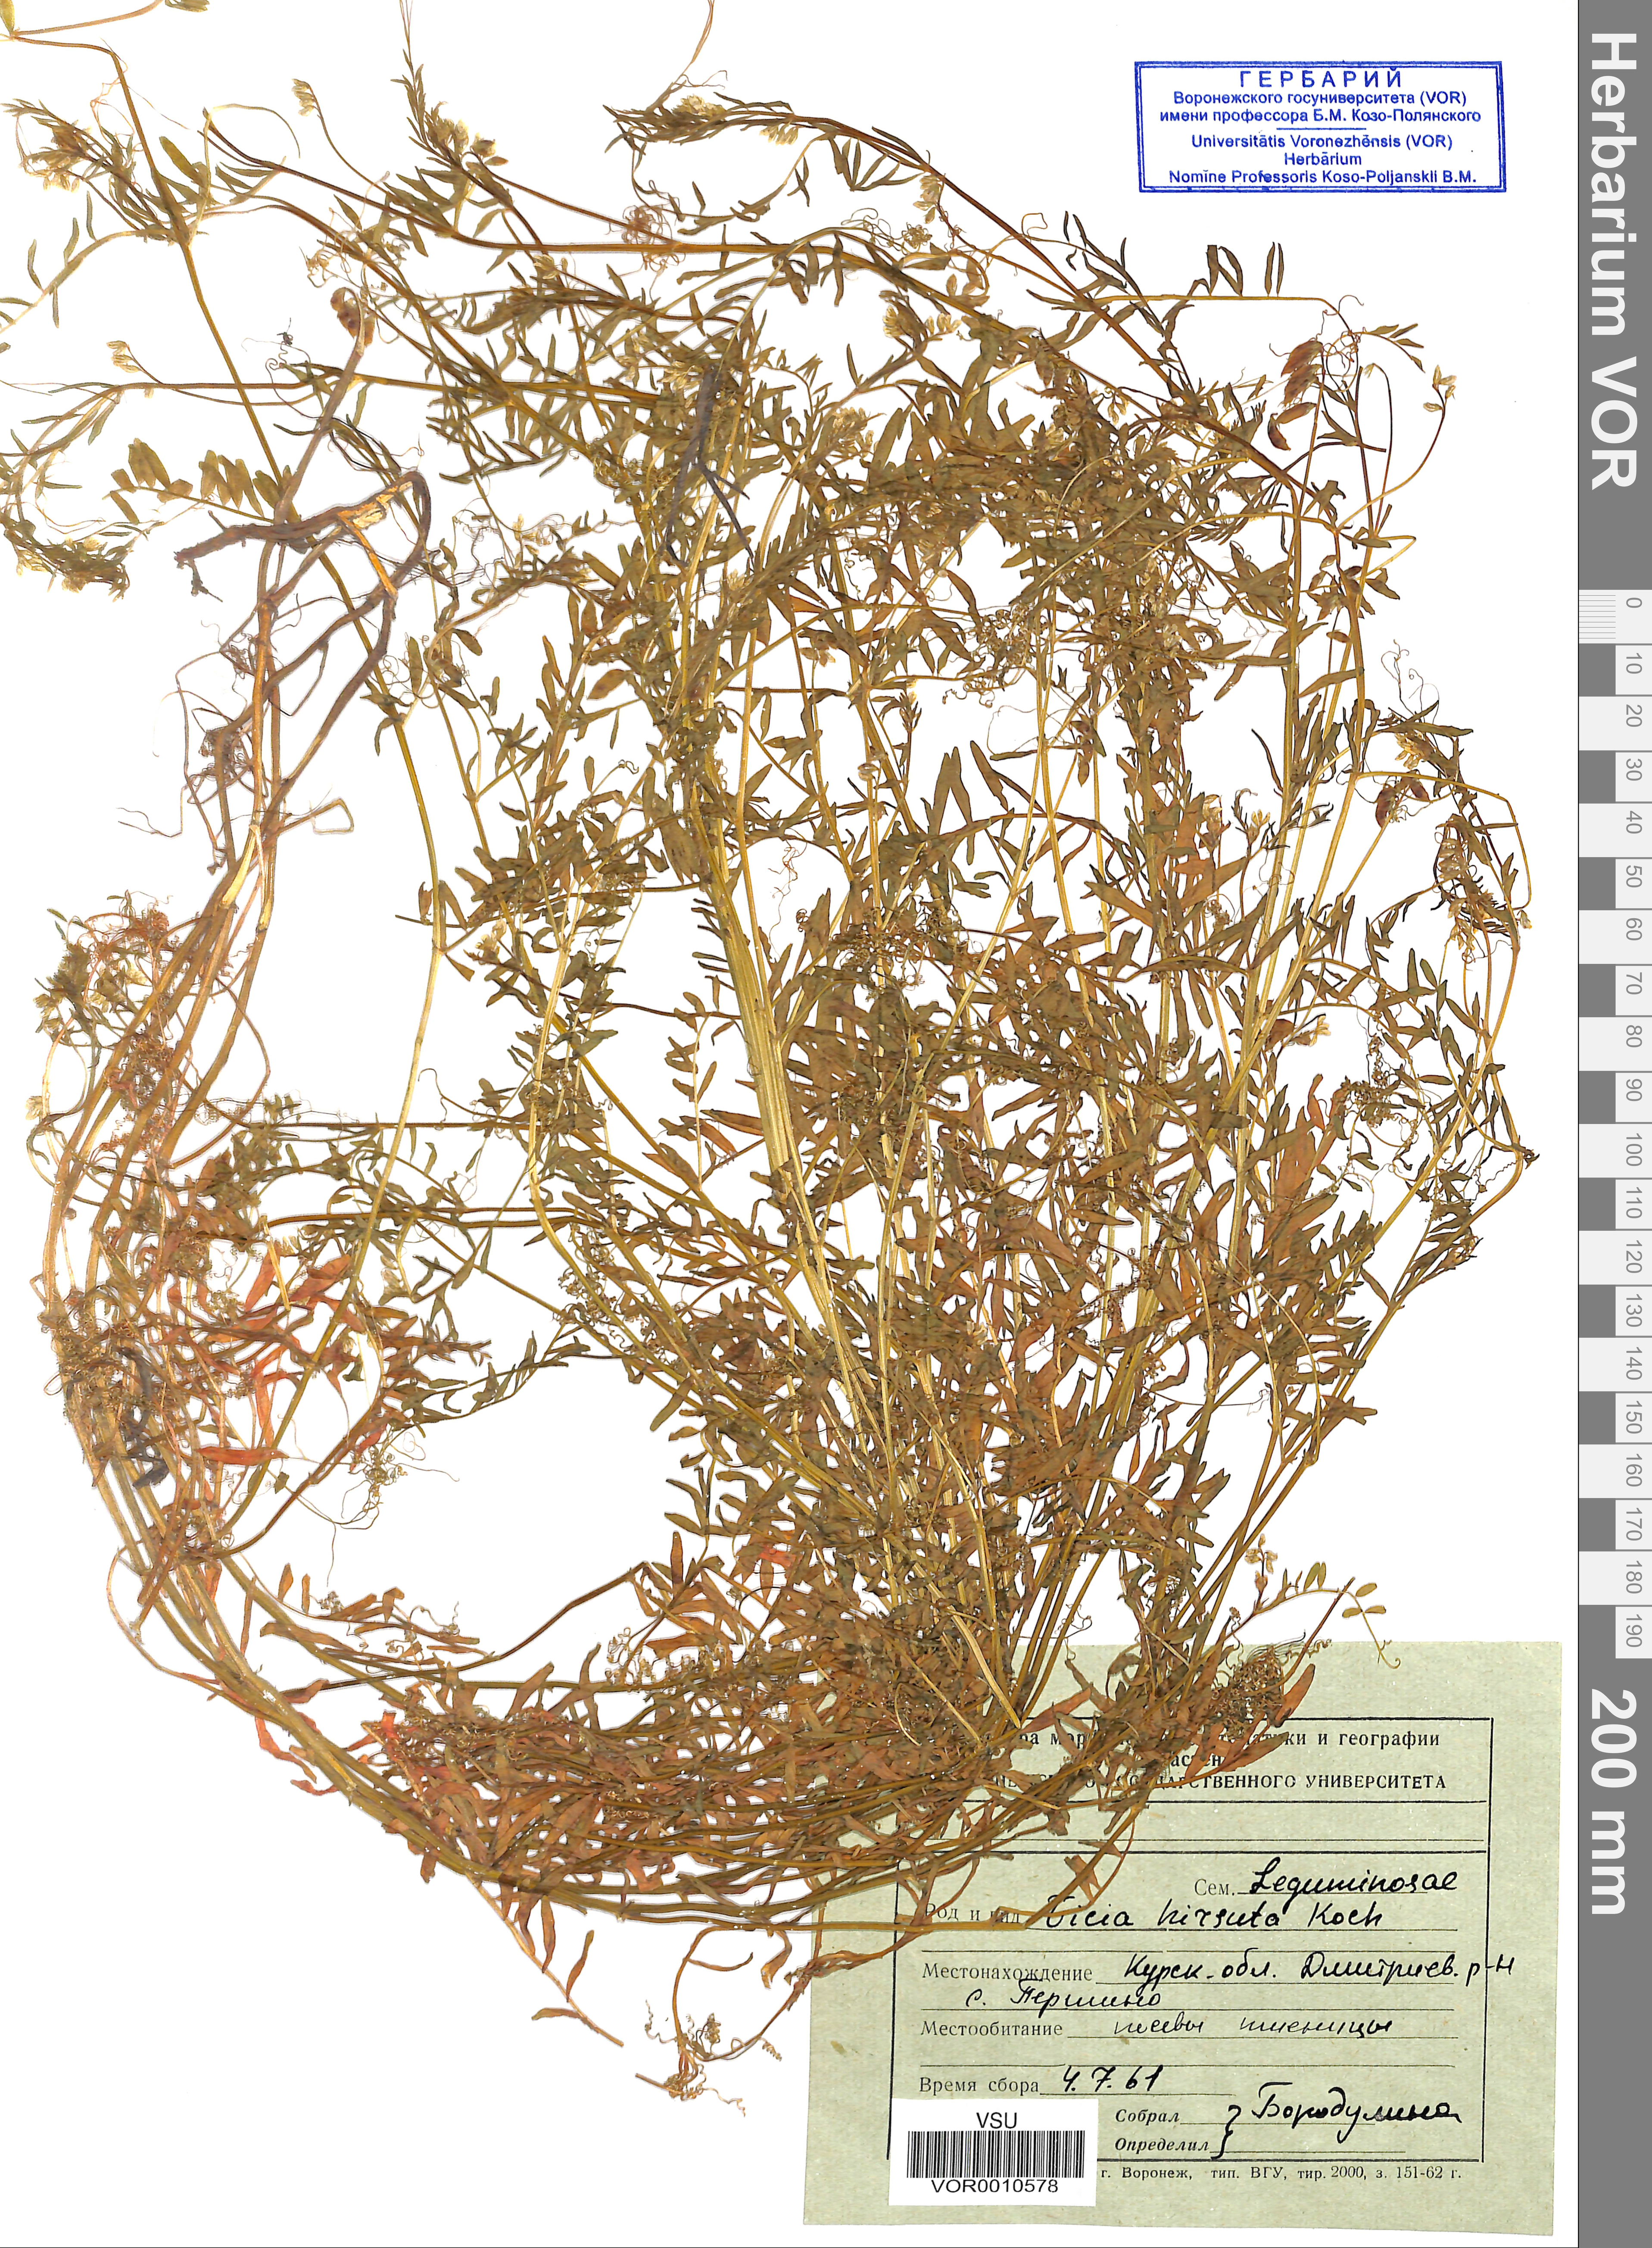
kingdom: Plantae
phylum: Tracheophyta
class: Magnoliopsida
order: Fabales
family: Fabaceae
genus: Vicia
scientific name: Vicia hirsuta
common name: Tiny vetch
